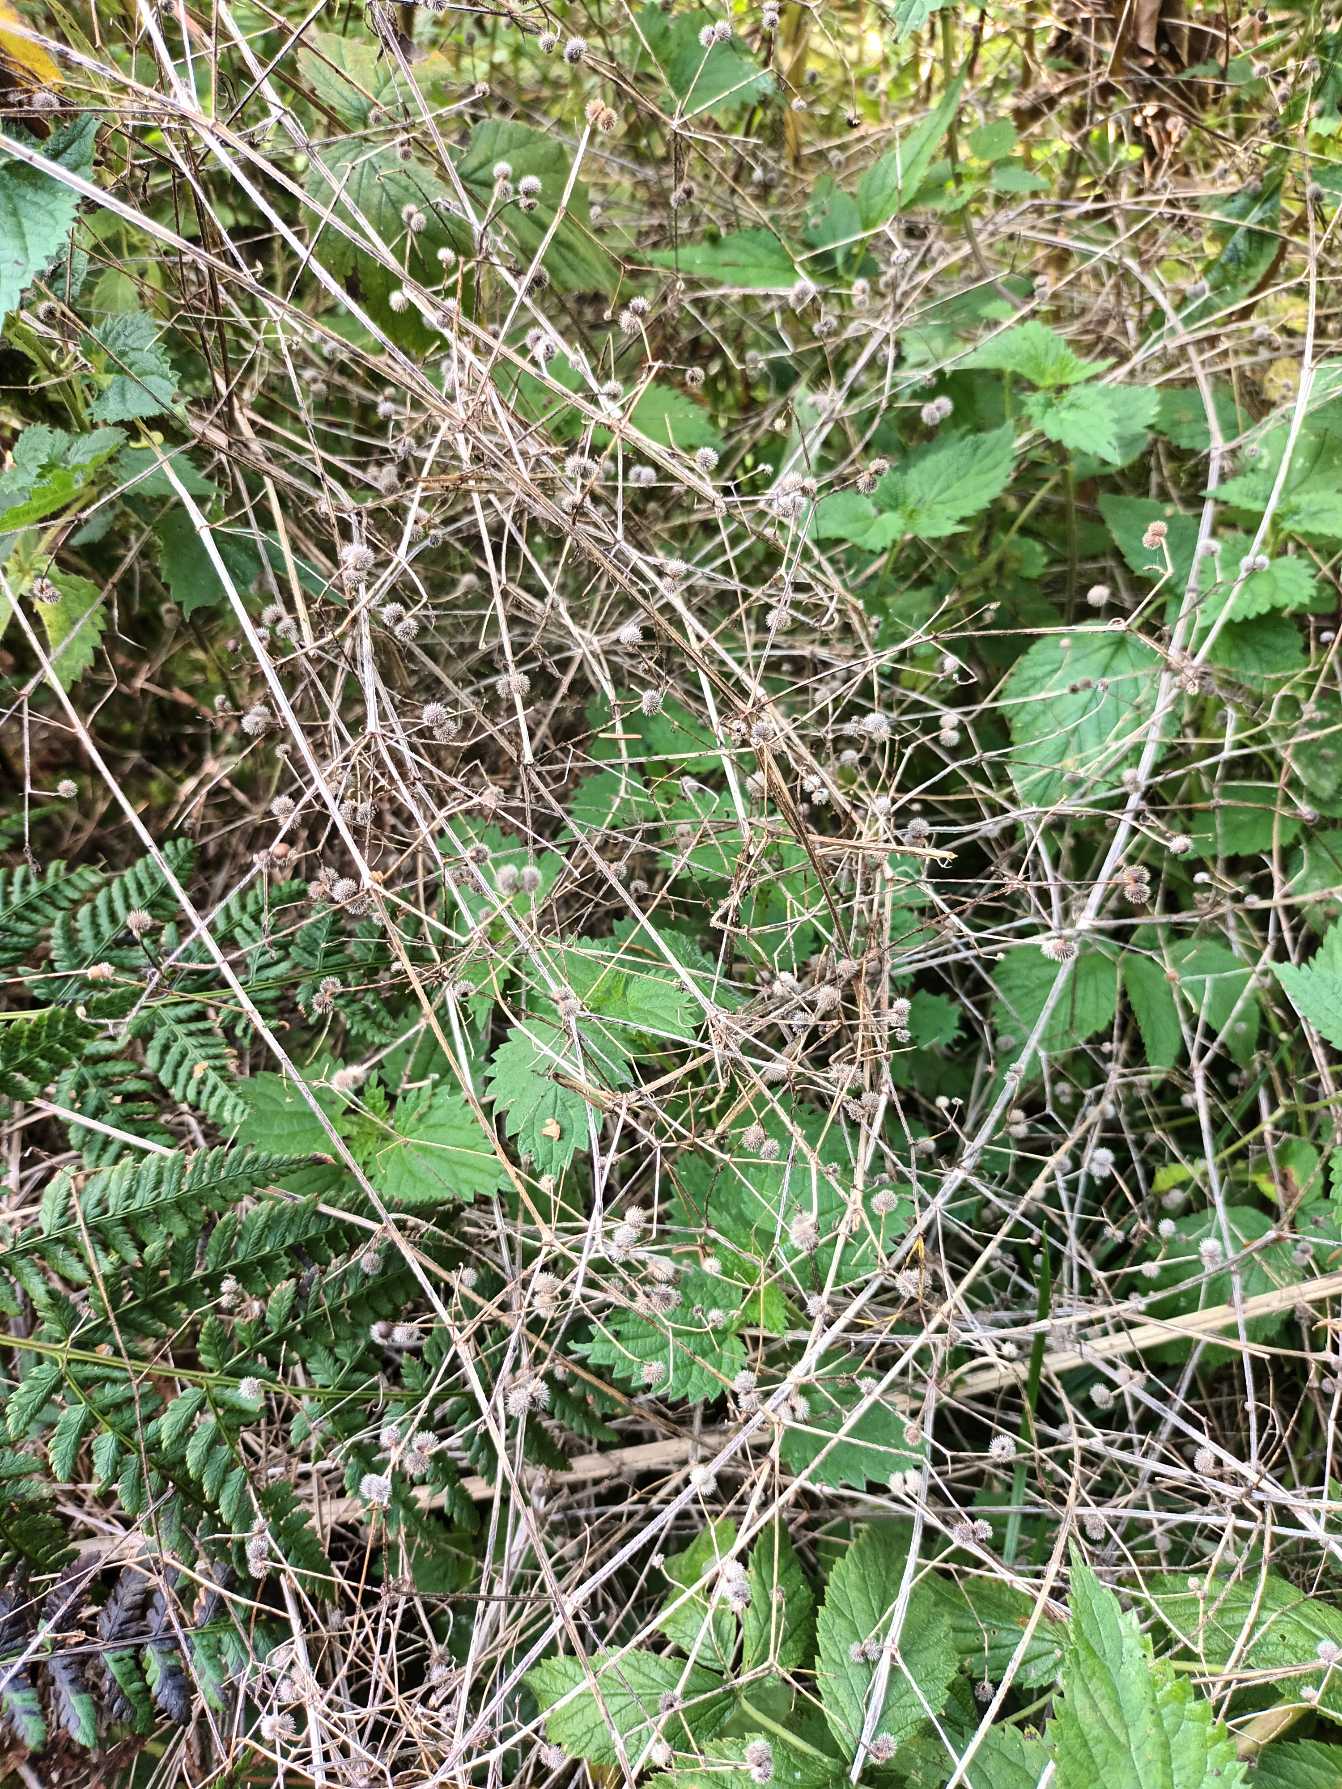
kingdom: Plantae
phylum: Tracheophyta
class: Magnoliopsida
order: Gentianales
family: Rubiaceae
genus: Galium
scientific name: Galium aparine
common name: Burre-snerre
